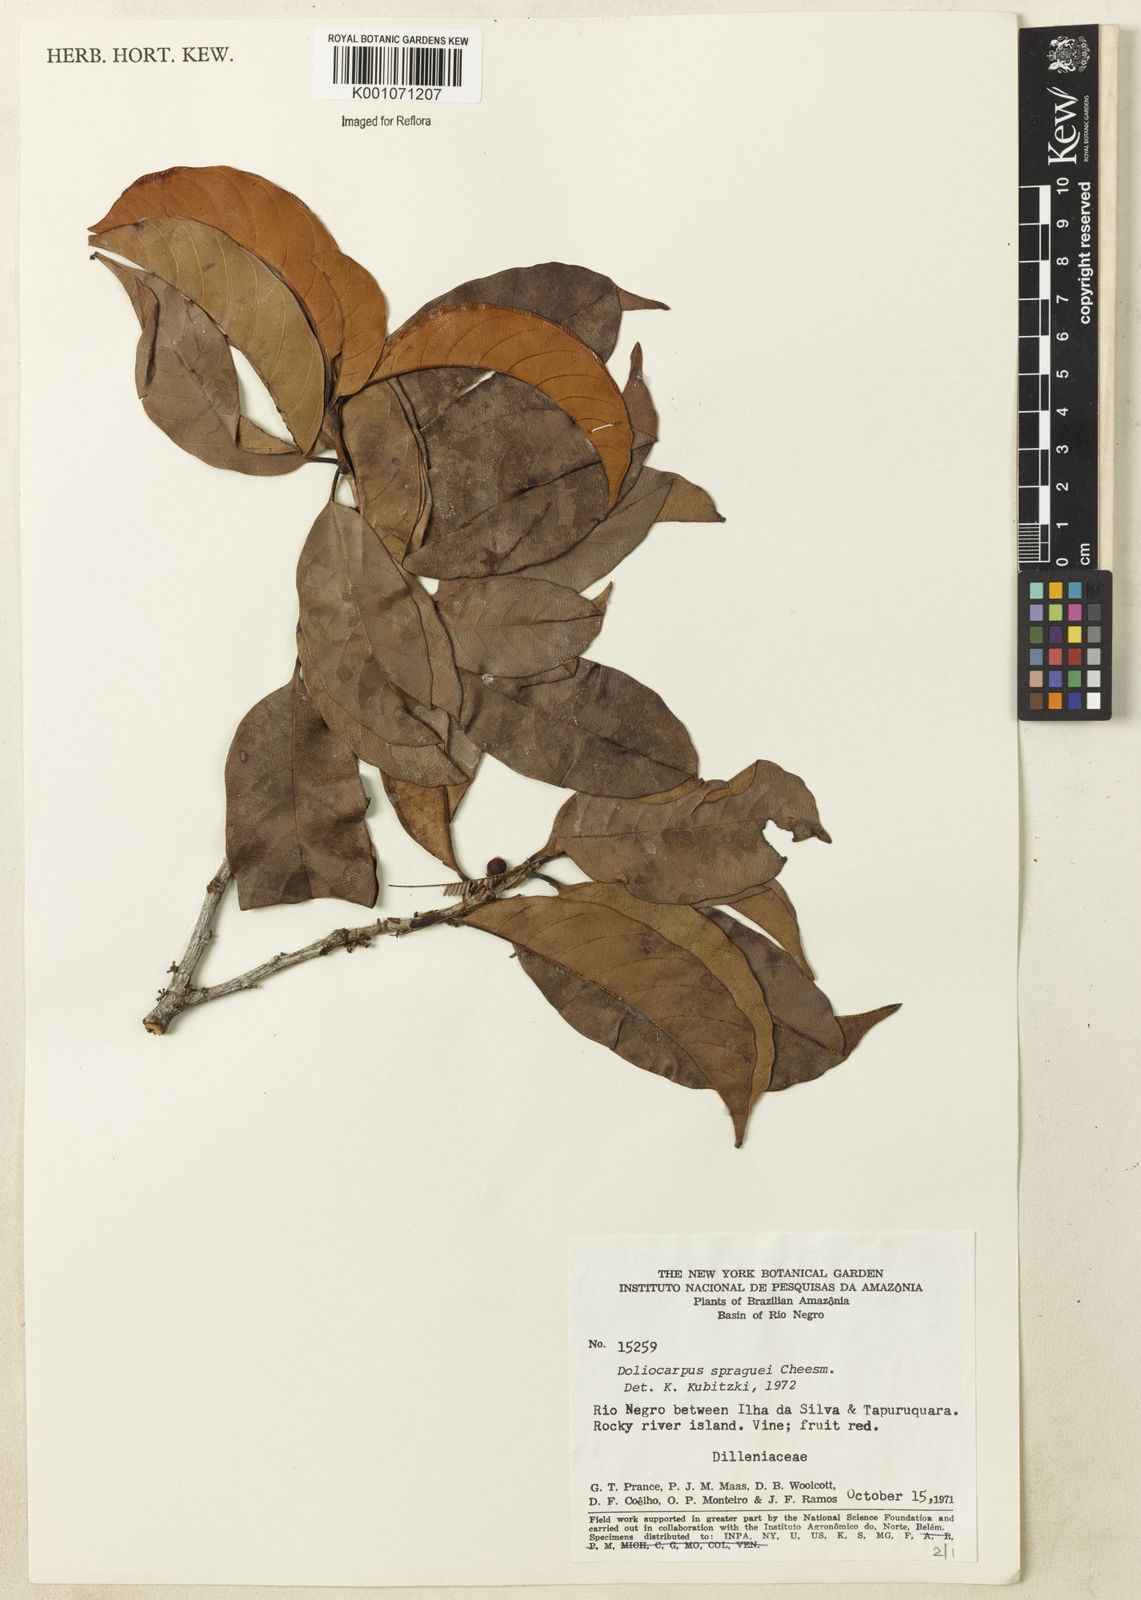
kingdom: Plantae
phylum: Tracheophyta
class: Magnoliopsida
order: Dilleniales
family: Dilleniaceae
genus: Doliocarpus
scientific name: Doliocarpus spraguei
